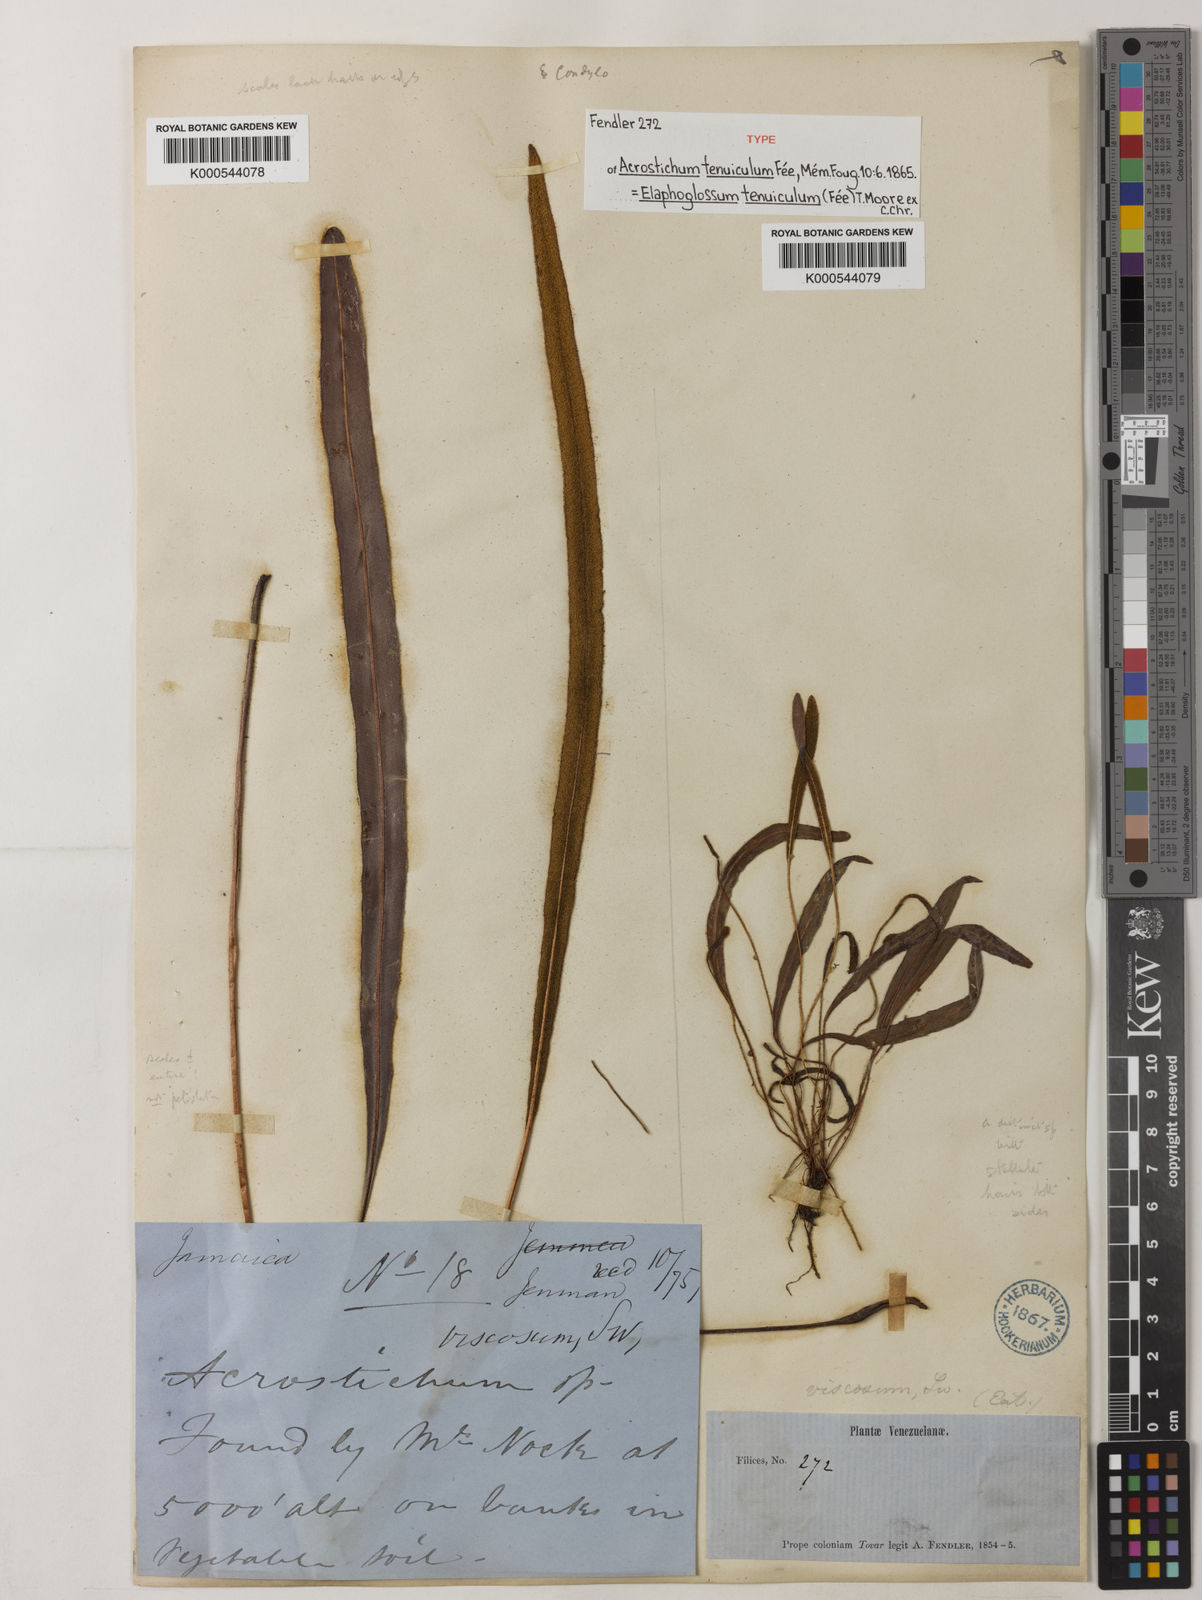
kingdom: Plantae
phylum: Tracheophyta
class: Polypodiopsida
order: Polypodiales
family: Dryopteridaceae
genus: Elaphoglossum
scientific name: Elaphoglossum
